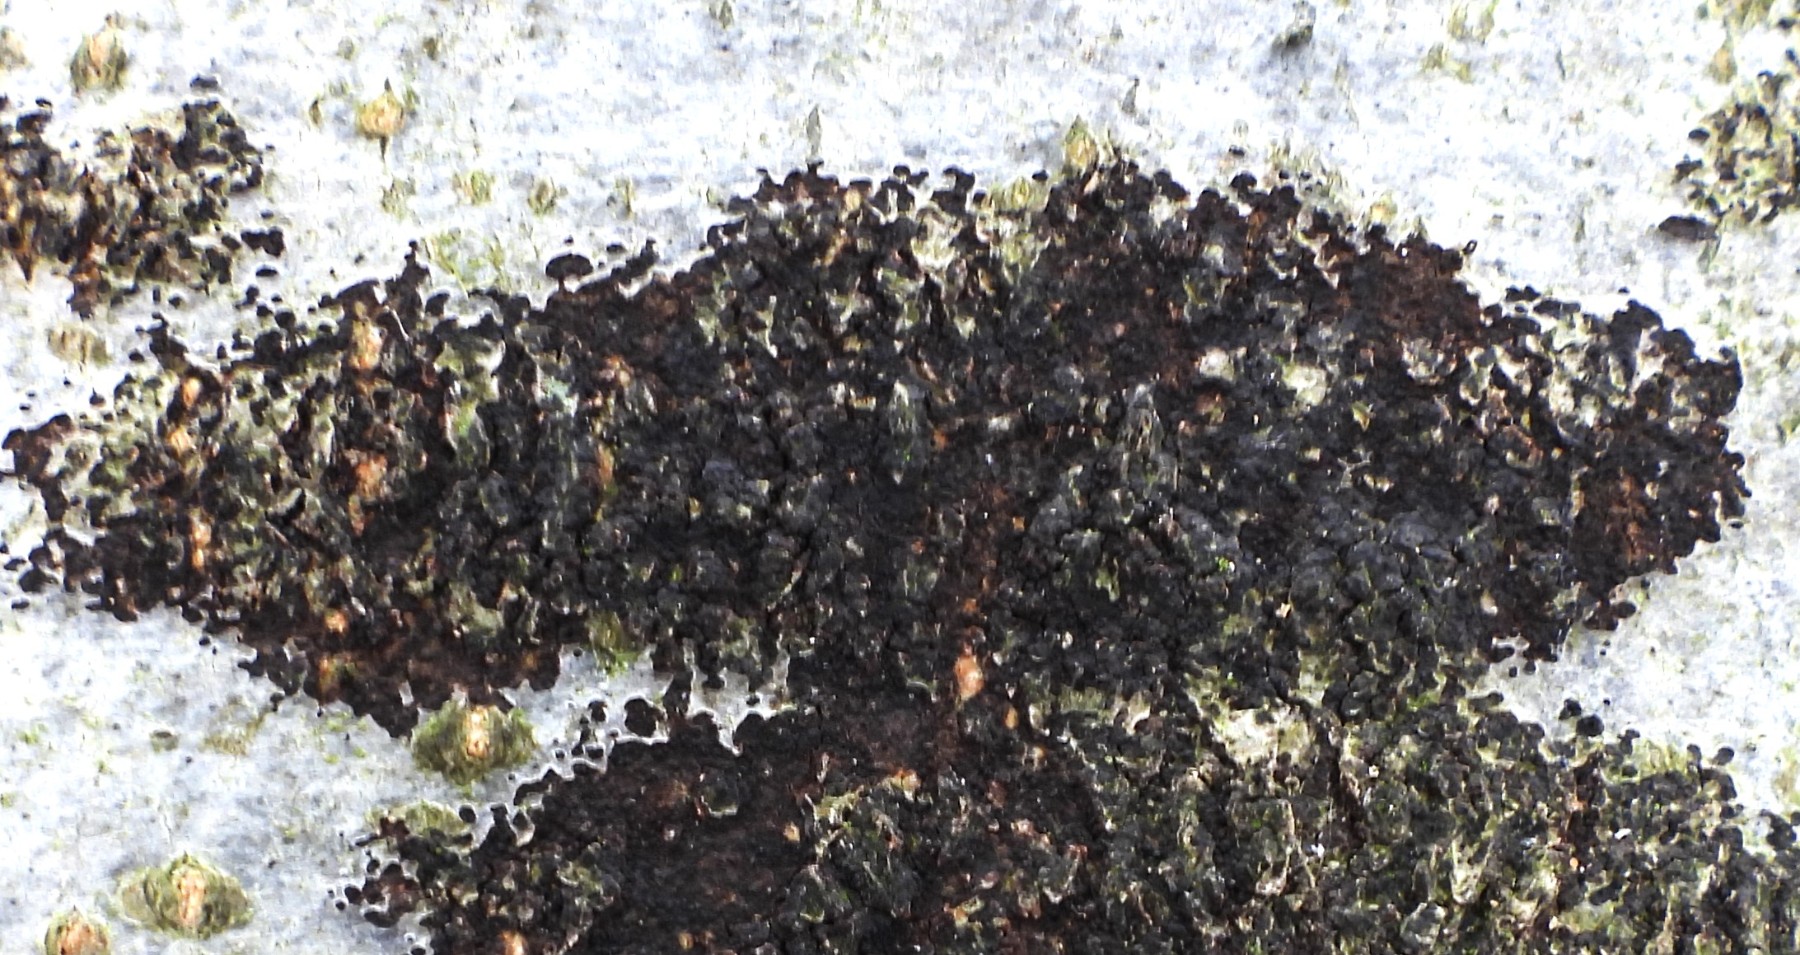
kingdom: Fungi
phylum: Ascomycota
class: Leotiomycetes
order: Rhytismatales
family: Ascodichaenaceae
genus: Ascodichaena
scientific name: Ascodichaena rugosa
